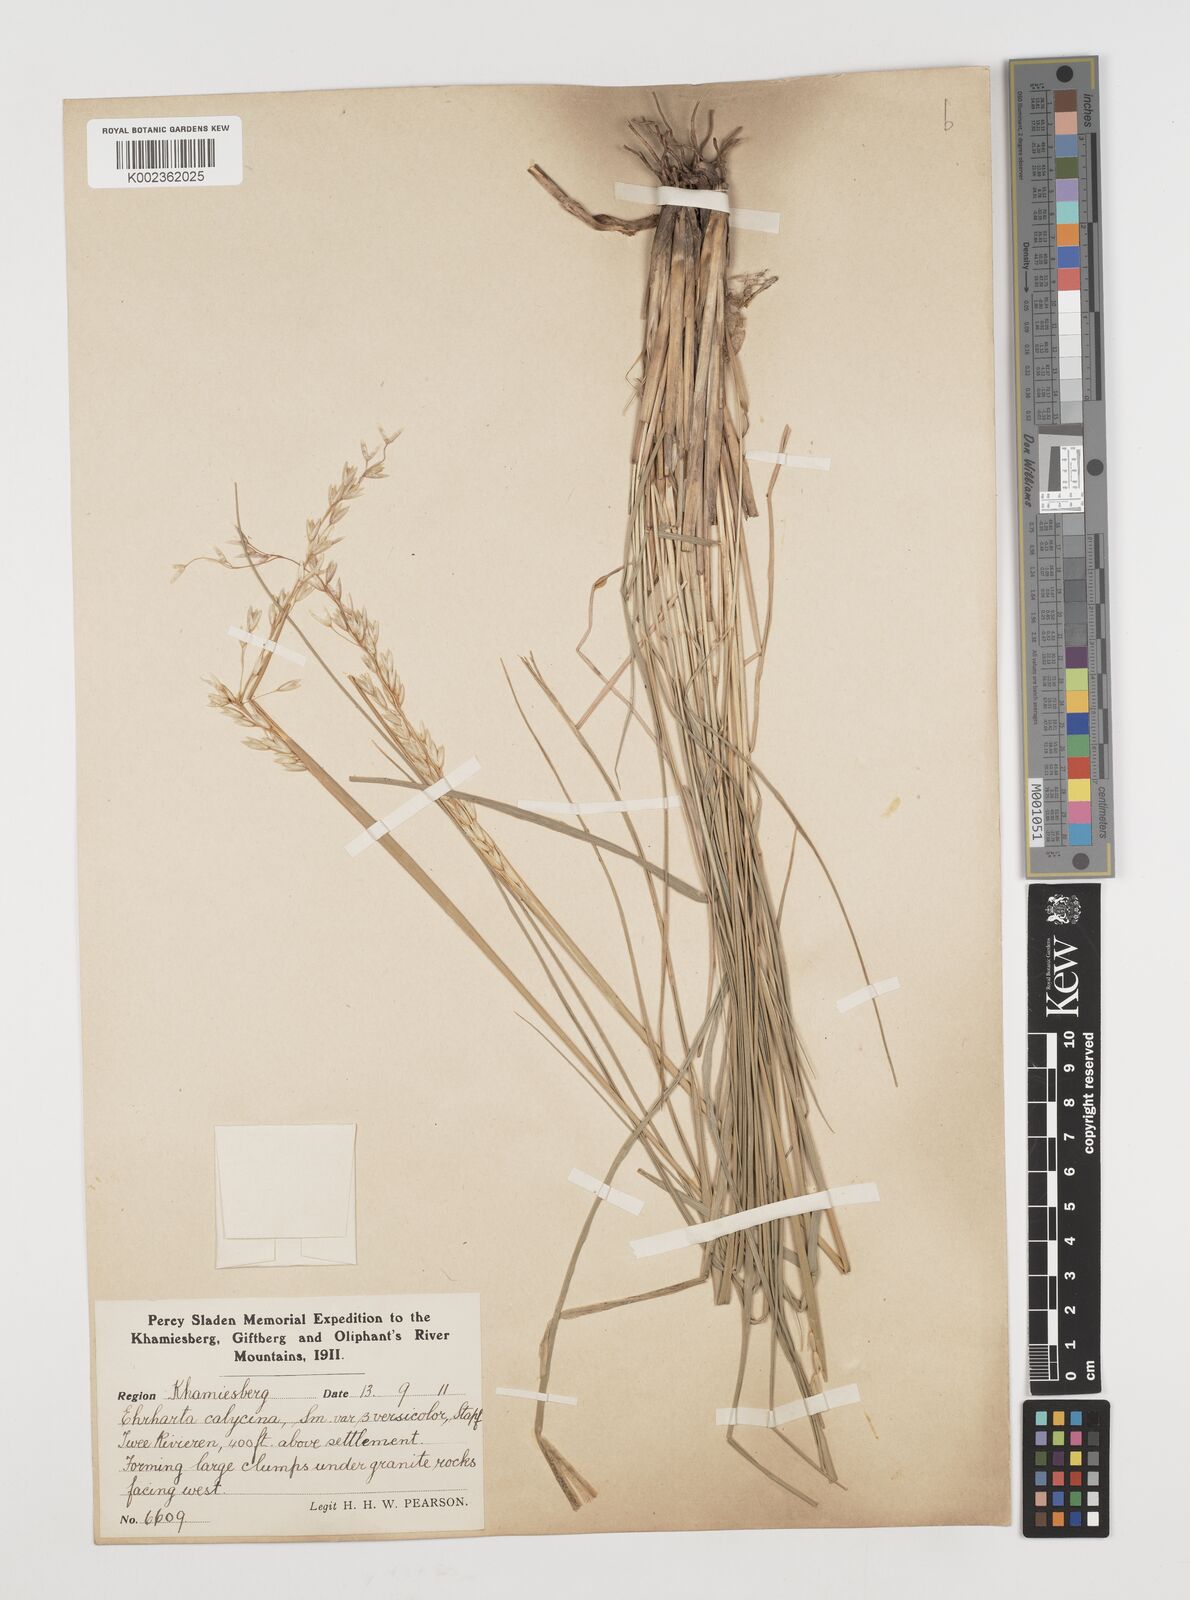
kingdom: Plantae
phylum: Tracheophyta
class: Liliopsida
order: Poales
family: Poaceae
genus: Ehrharta
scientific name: Ehrharta calycina
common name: Perennial veldtgrass
